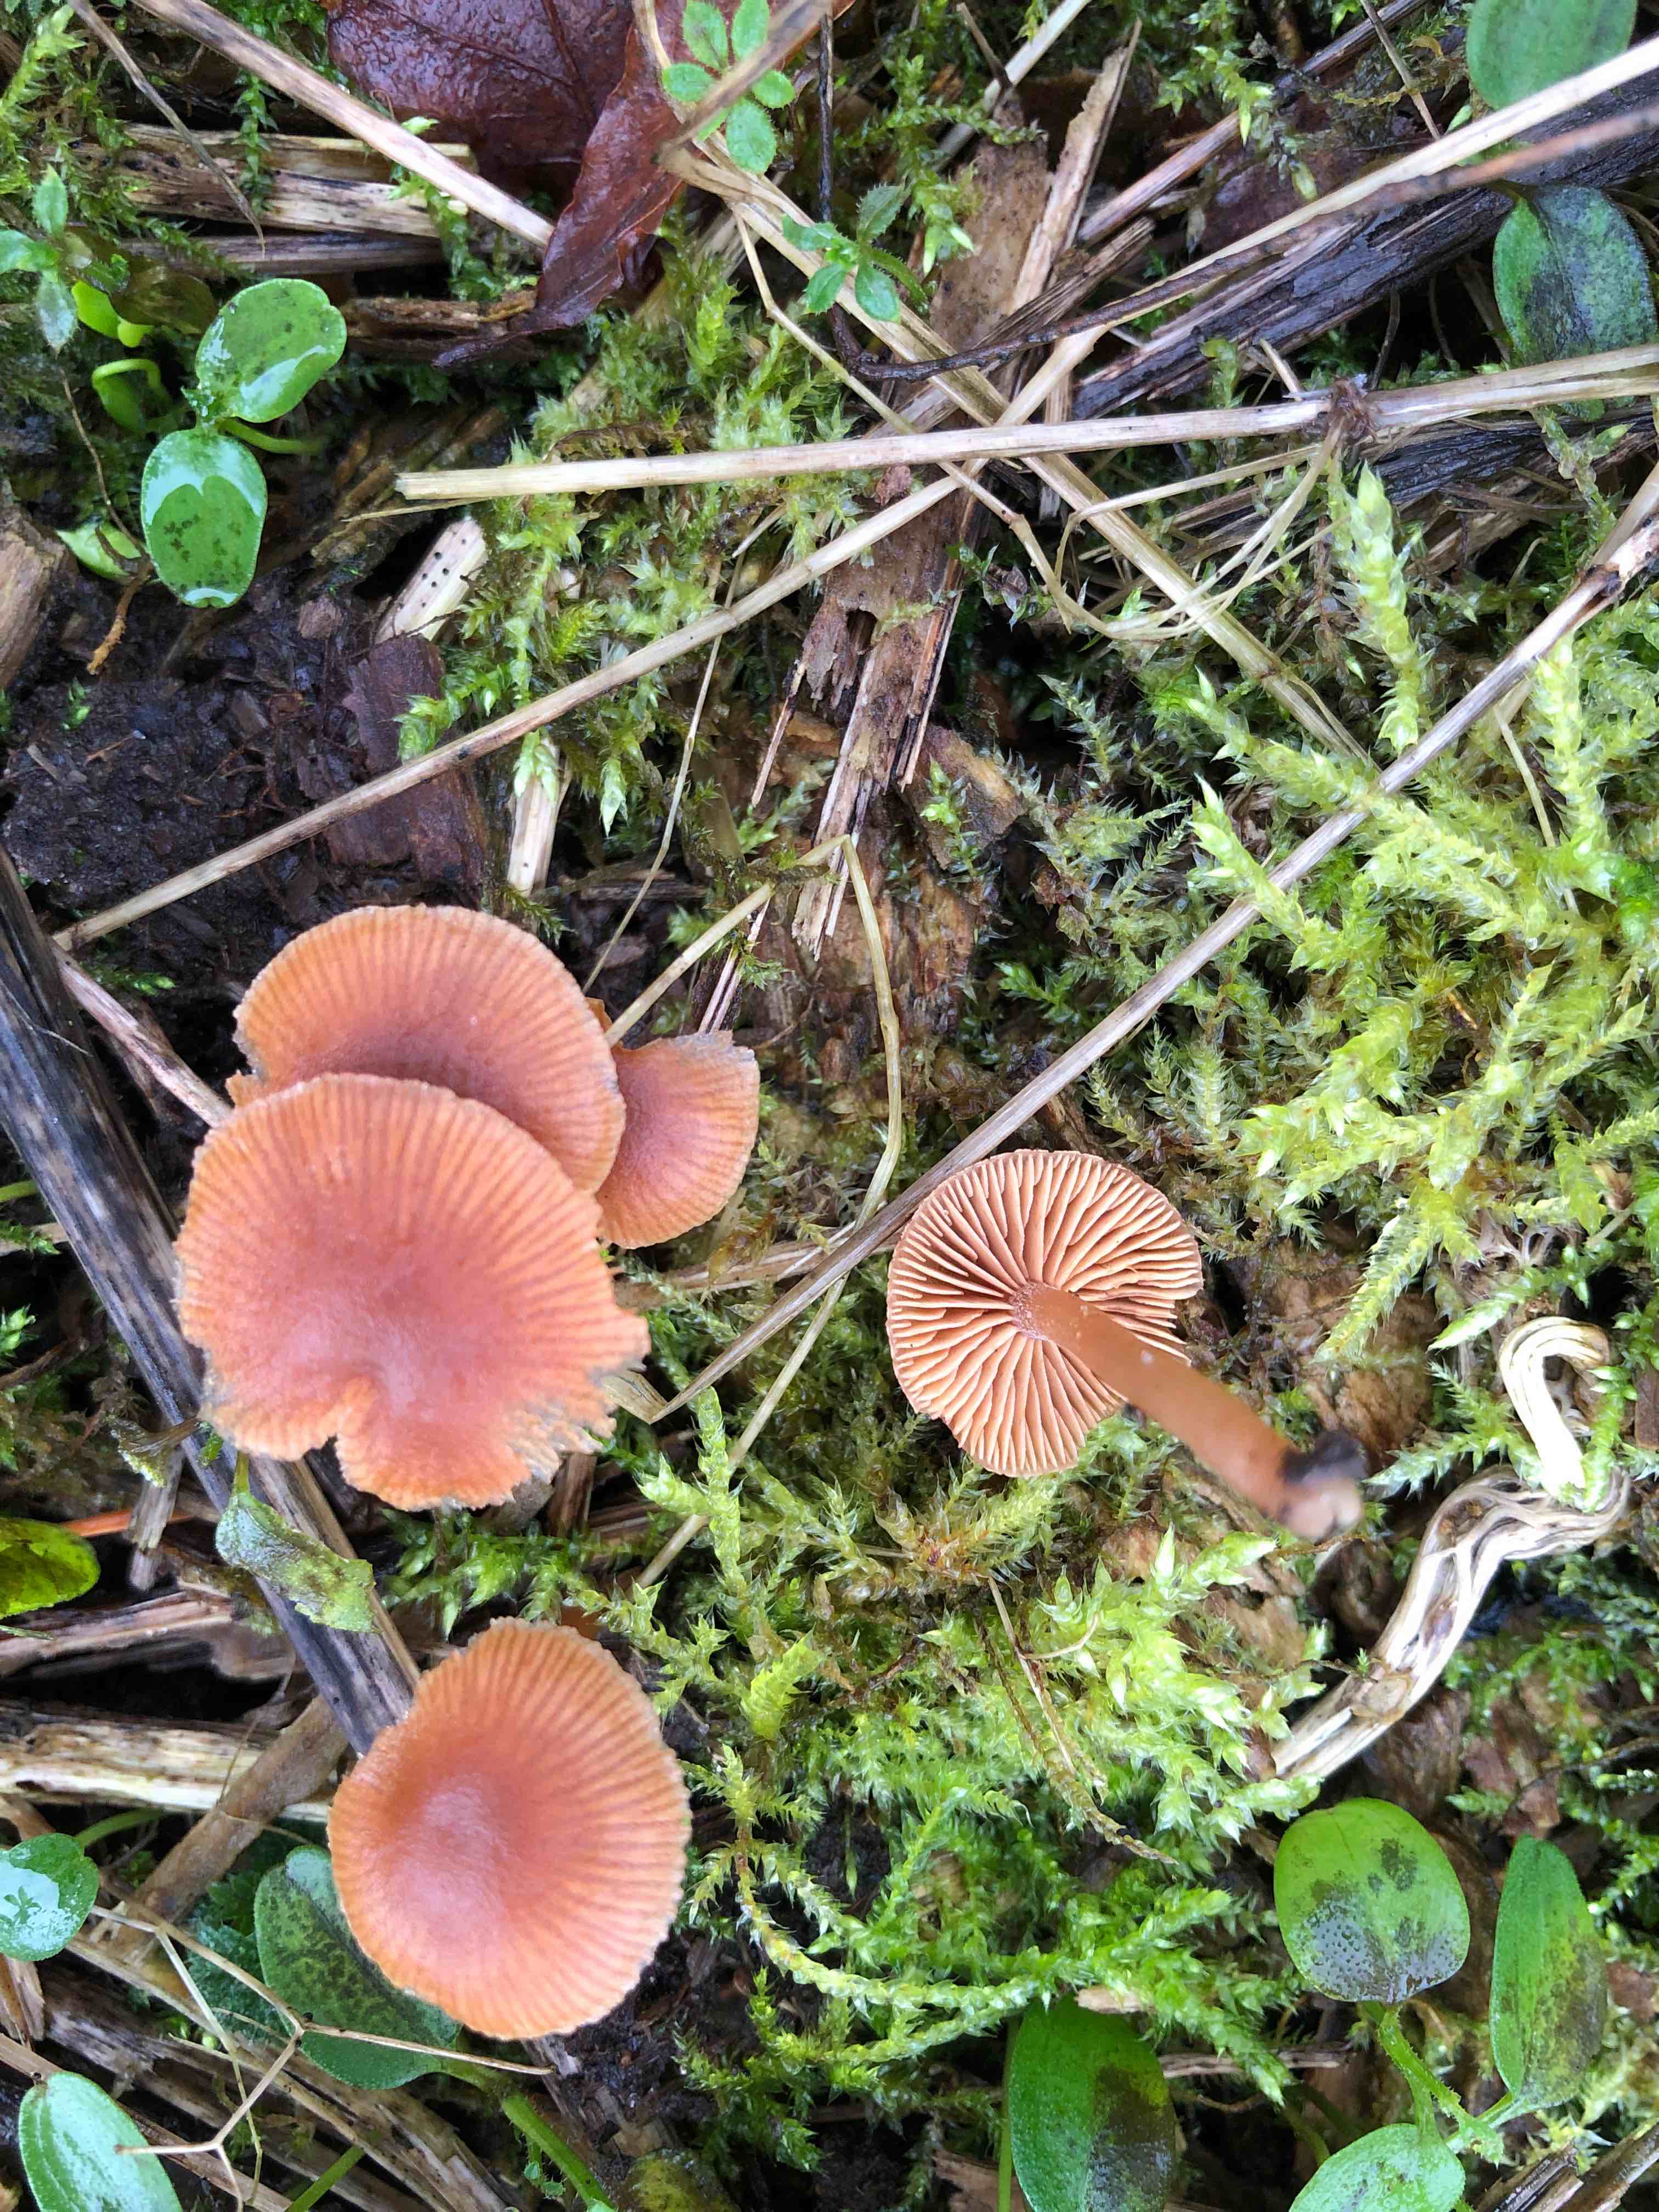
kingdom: Fungi
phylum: Basidiomycota
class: Agaricomycetes
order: Agaricales
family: Tubariaceae
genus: Tubaria
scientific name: Tubaria furfuracea
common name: kliddet fnughat
